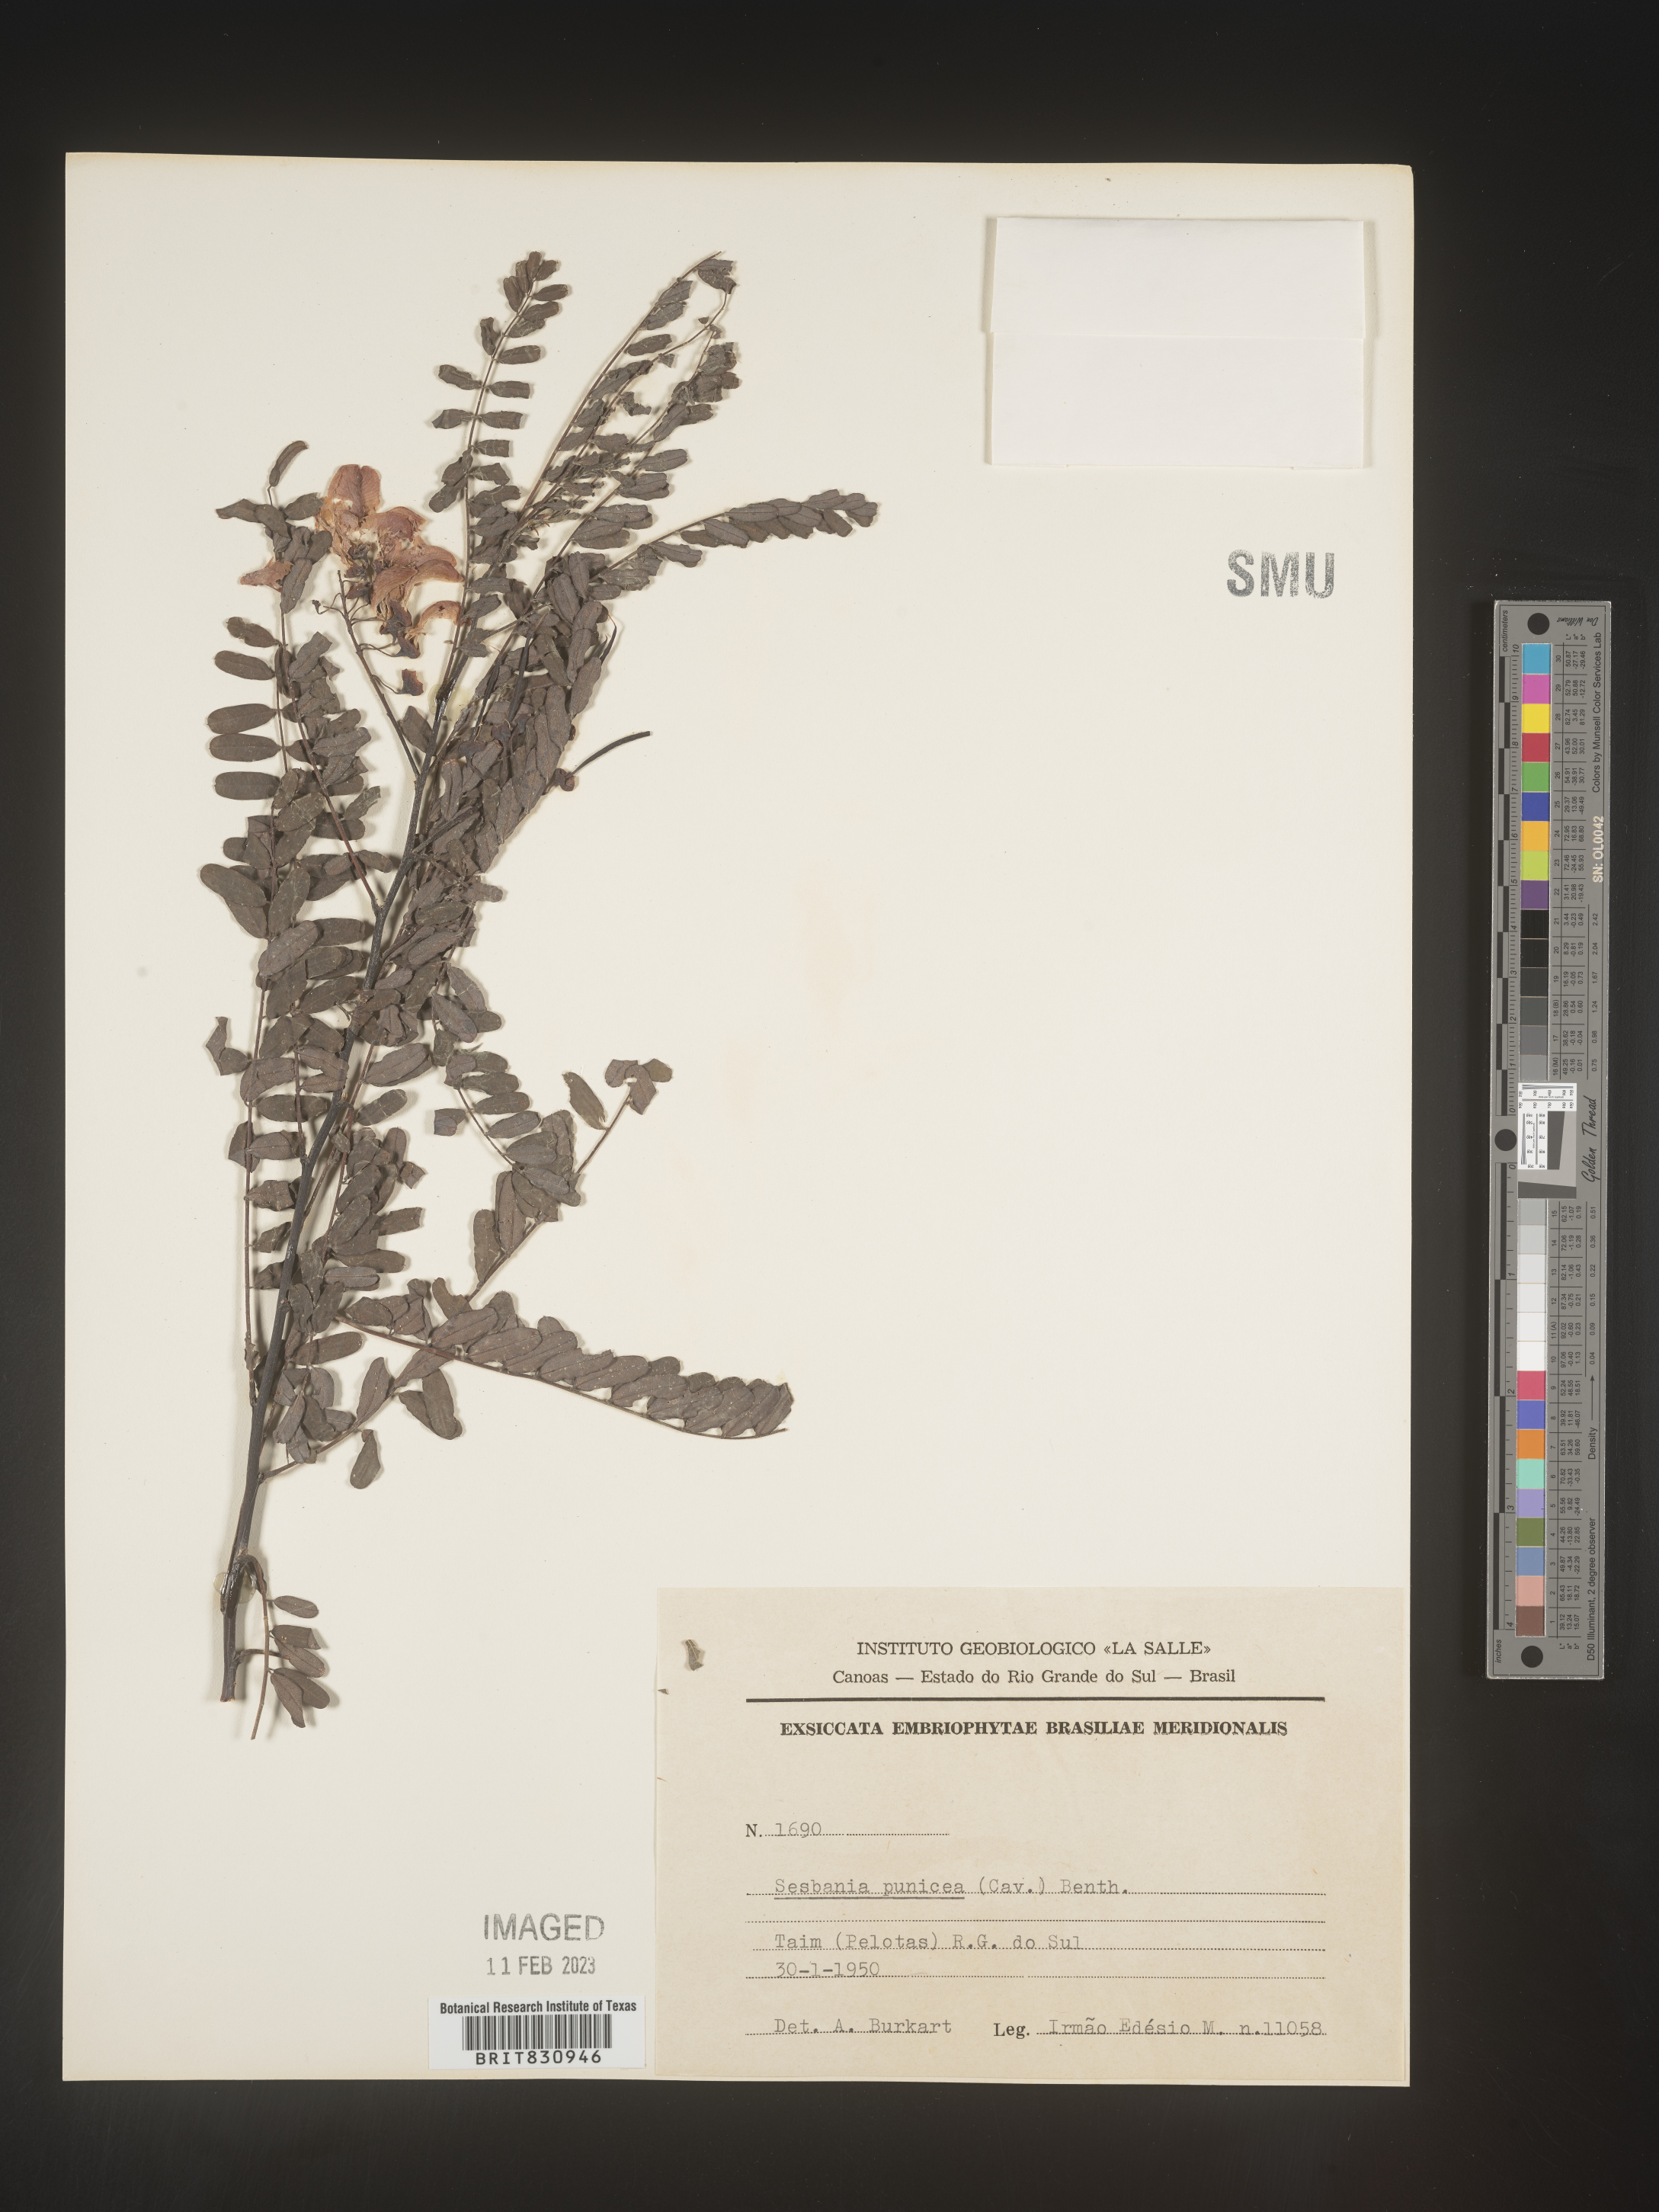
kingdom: Plantae
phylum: Tracheophyta
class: Magnoliopsida
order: Fabales
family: Fabaceae
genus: Sesbania
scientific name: Sesbania
